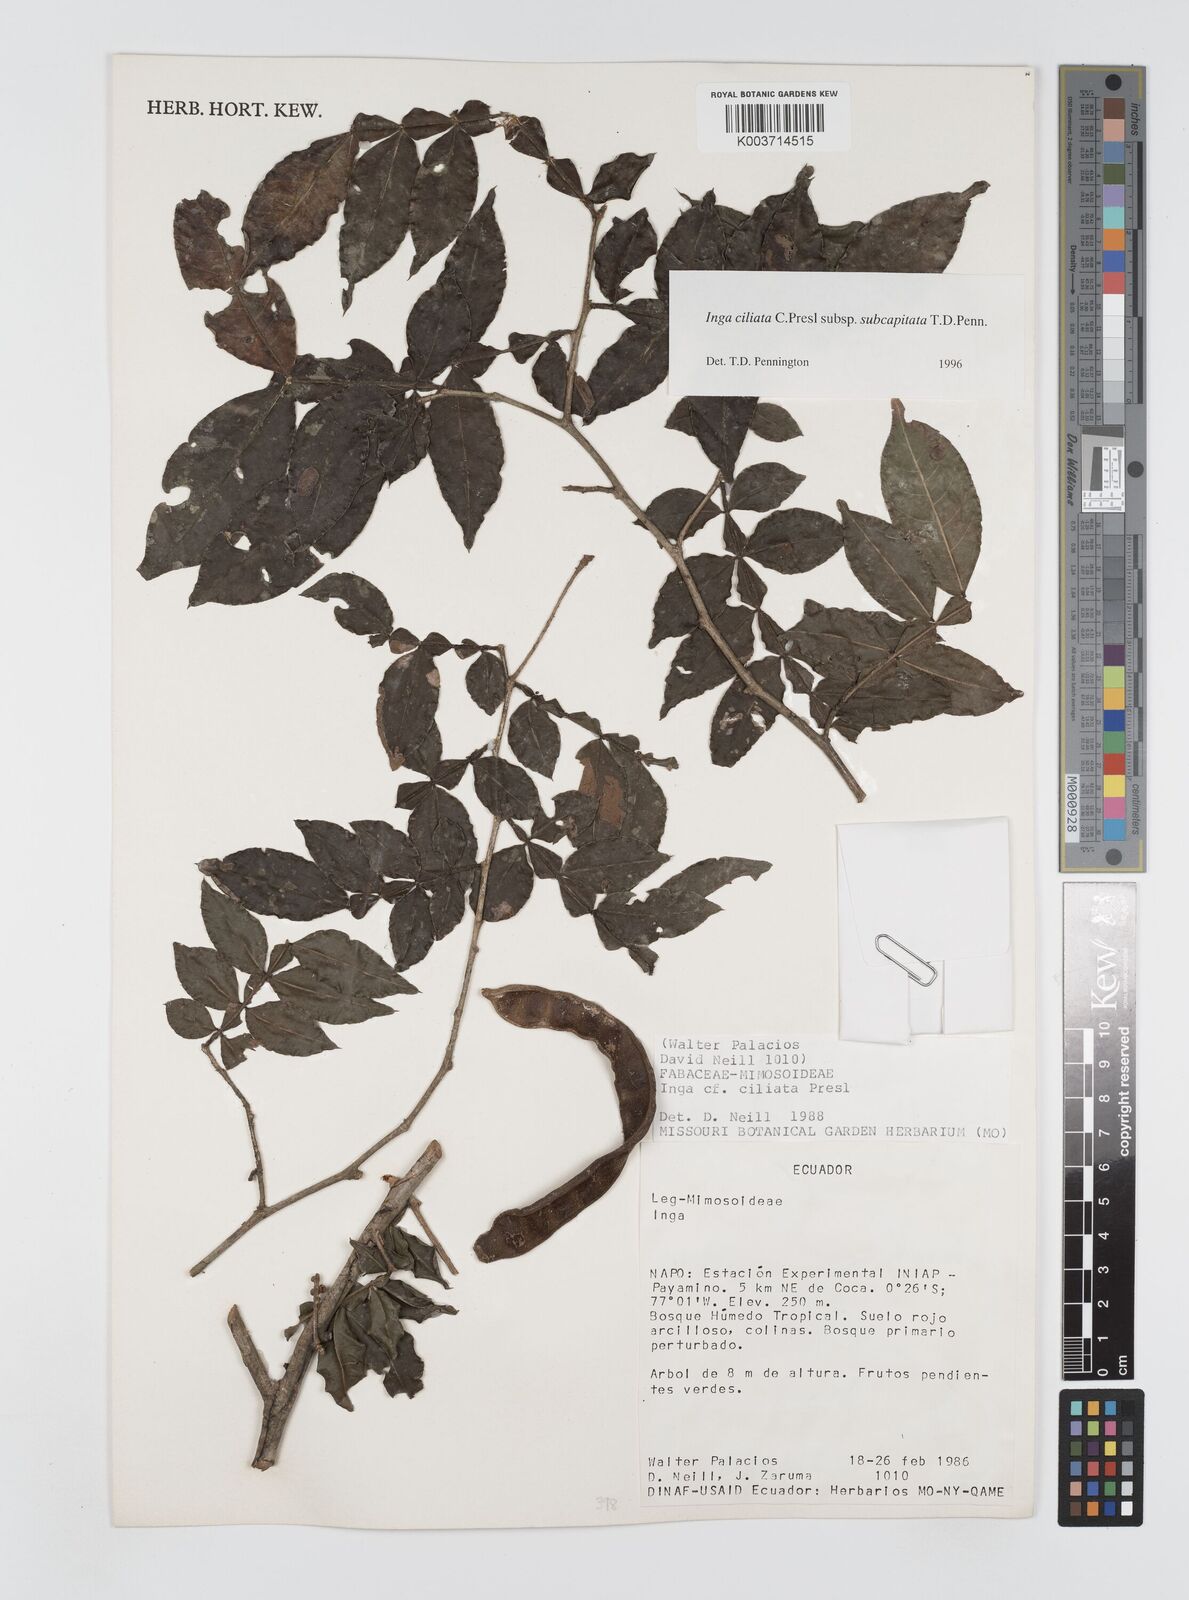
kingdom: Plantae
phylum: Tracheophyta
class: Magnoliopsida
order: Fabales
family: Fabaceae
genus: Inga
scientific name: Inga ciliata
